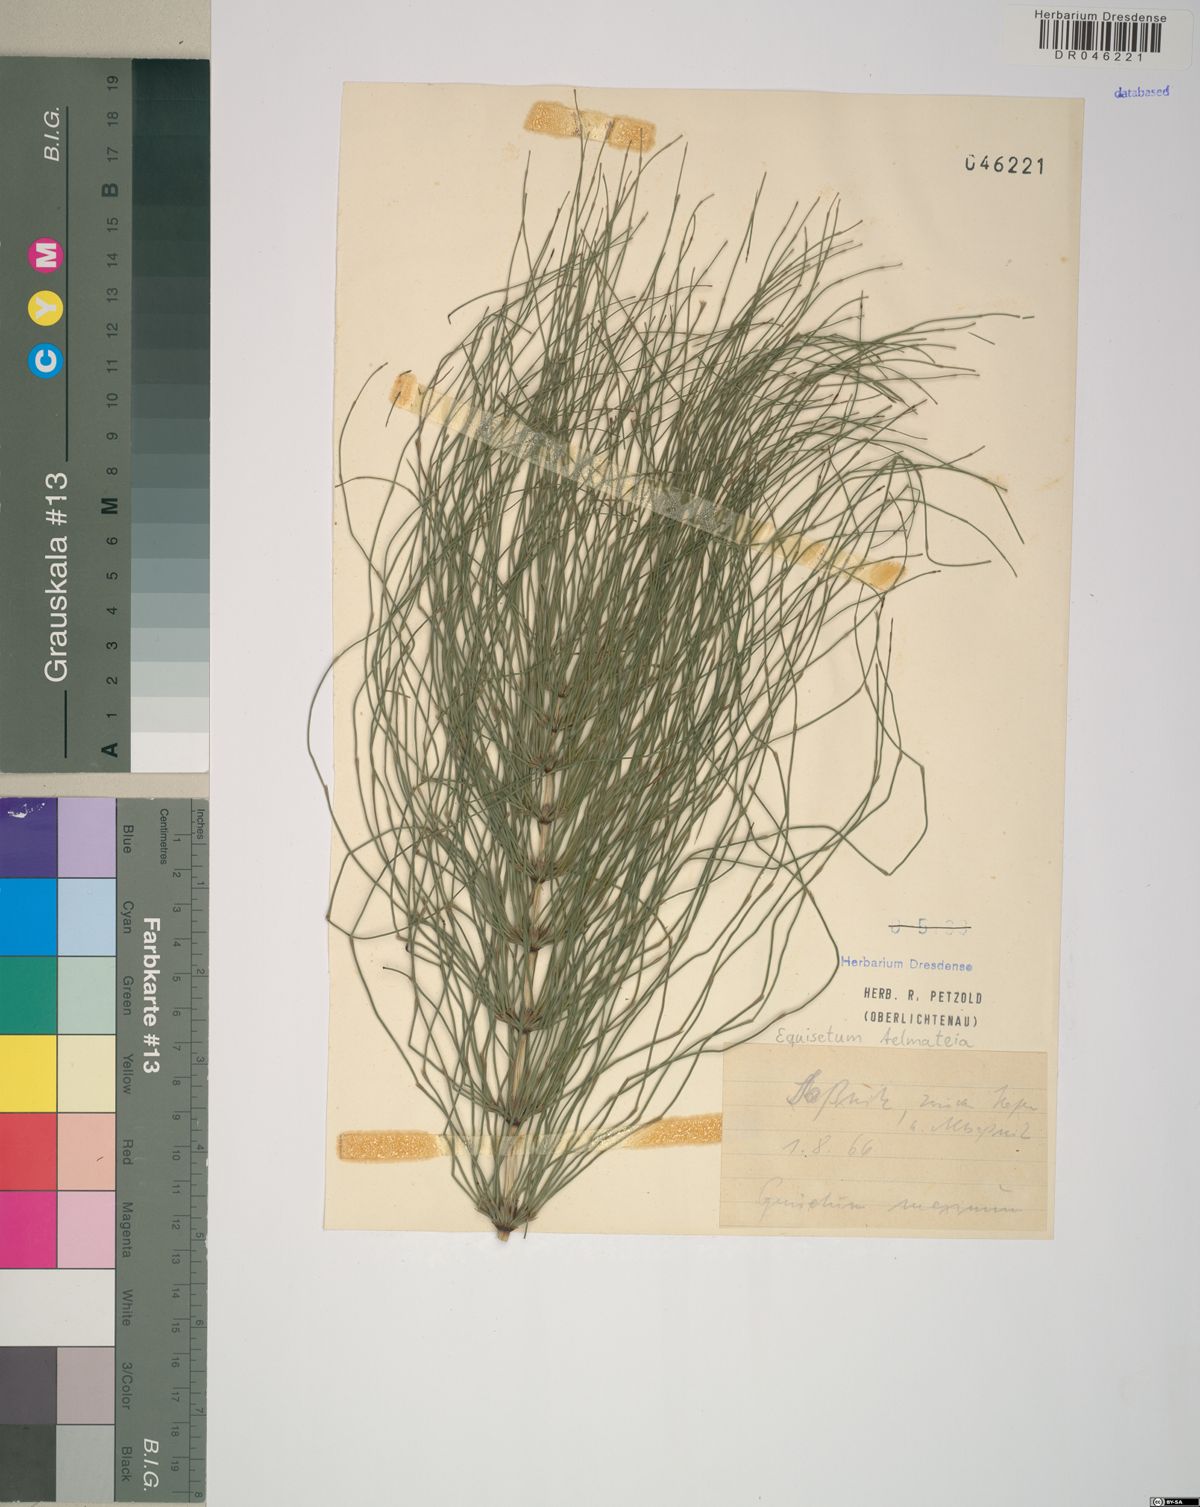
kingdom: Plantae
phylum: Tracheophyta
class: Polypodiopsida
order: Equisetales
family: Equisetaceae
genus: Equisetum
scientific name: Equisetum telmateia
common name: Great horsetail
